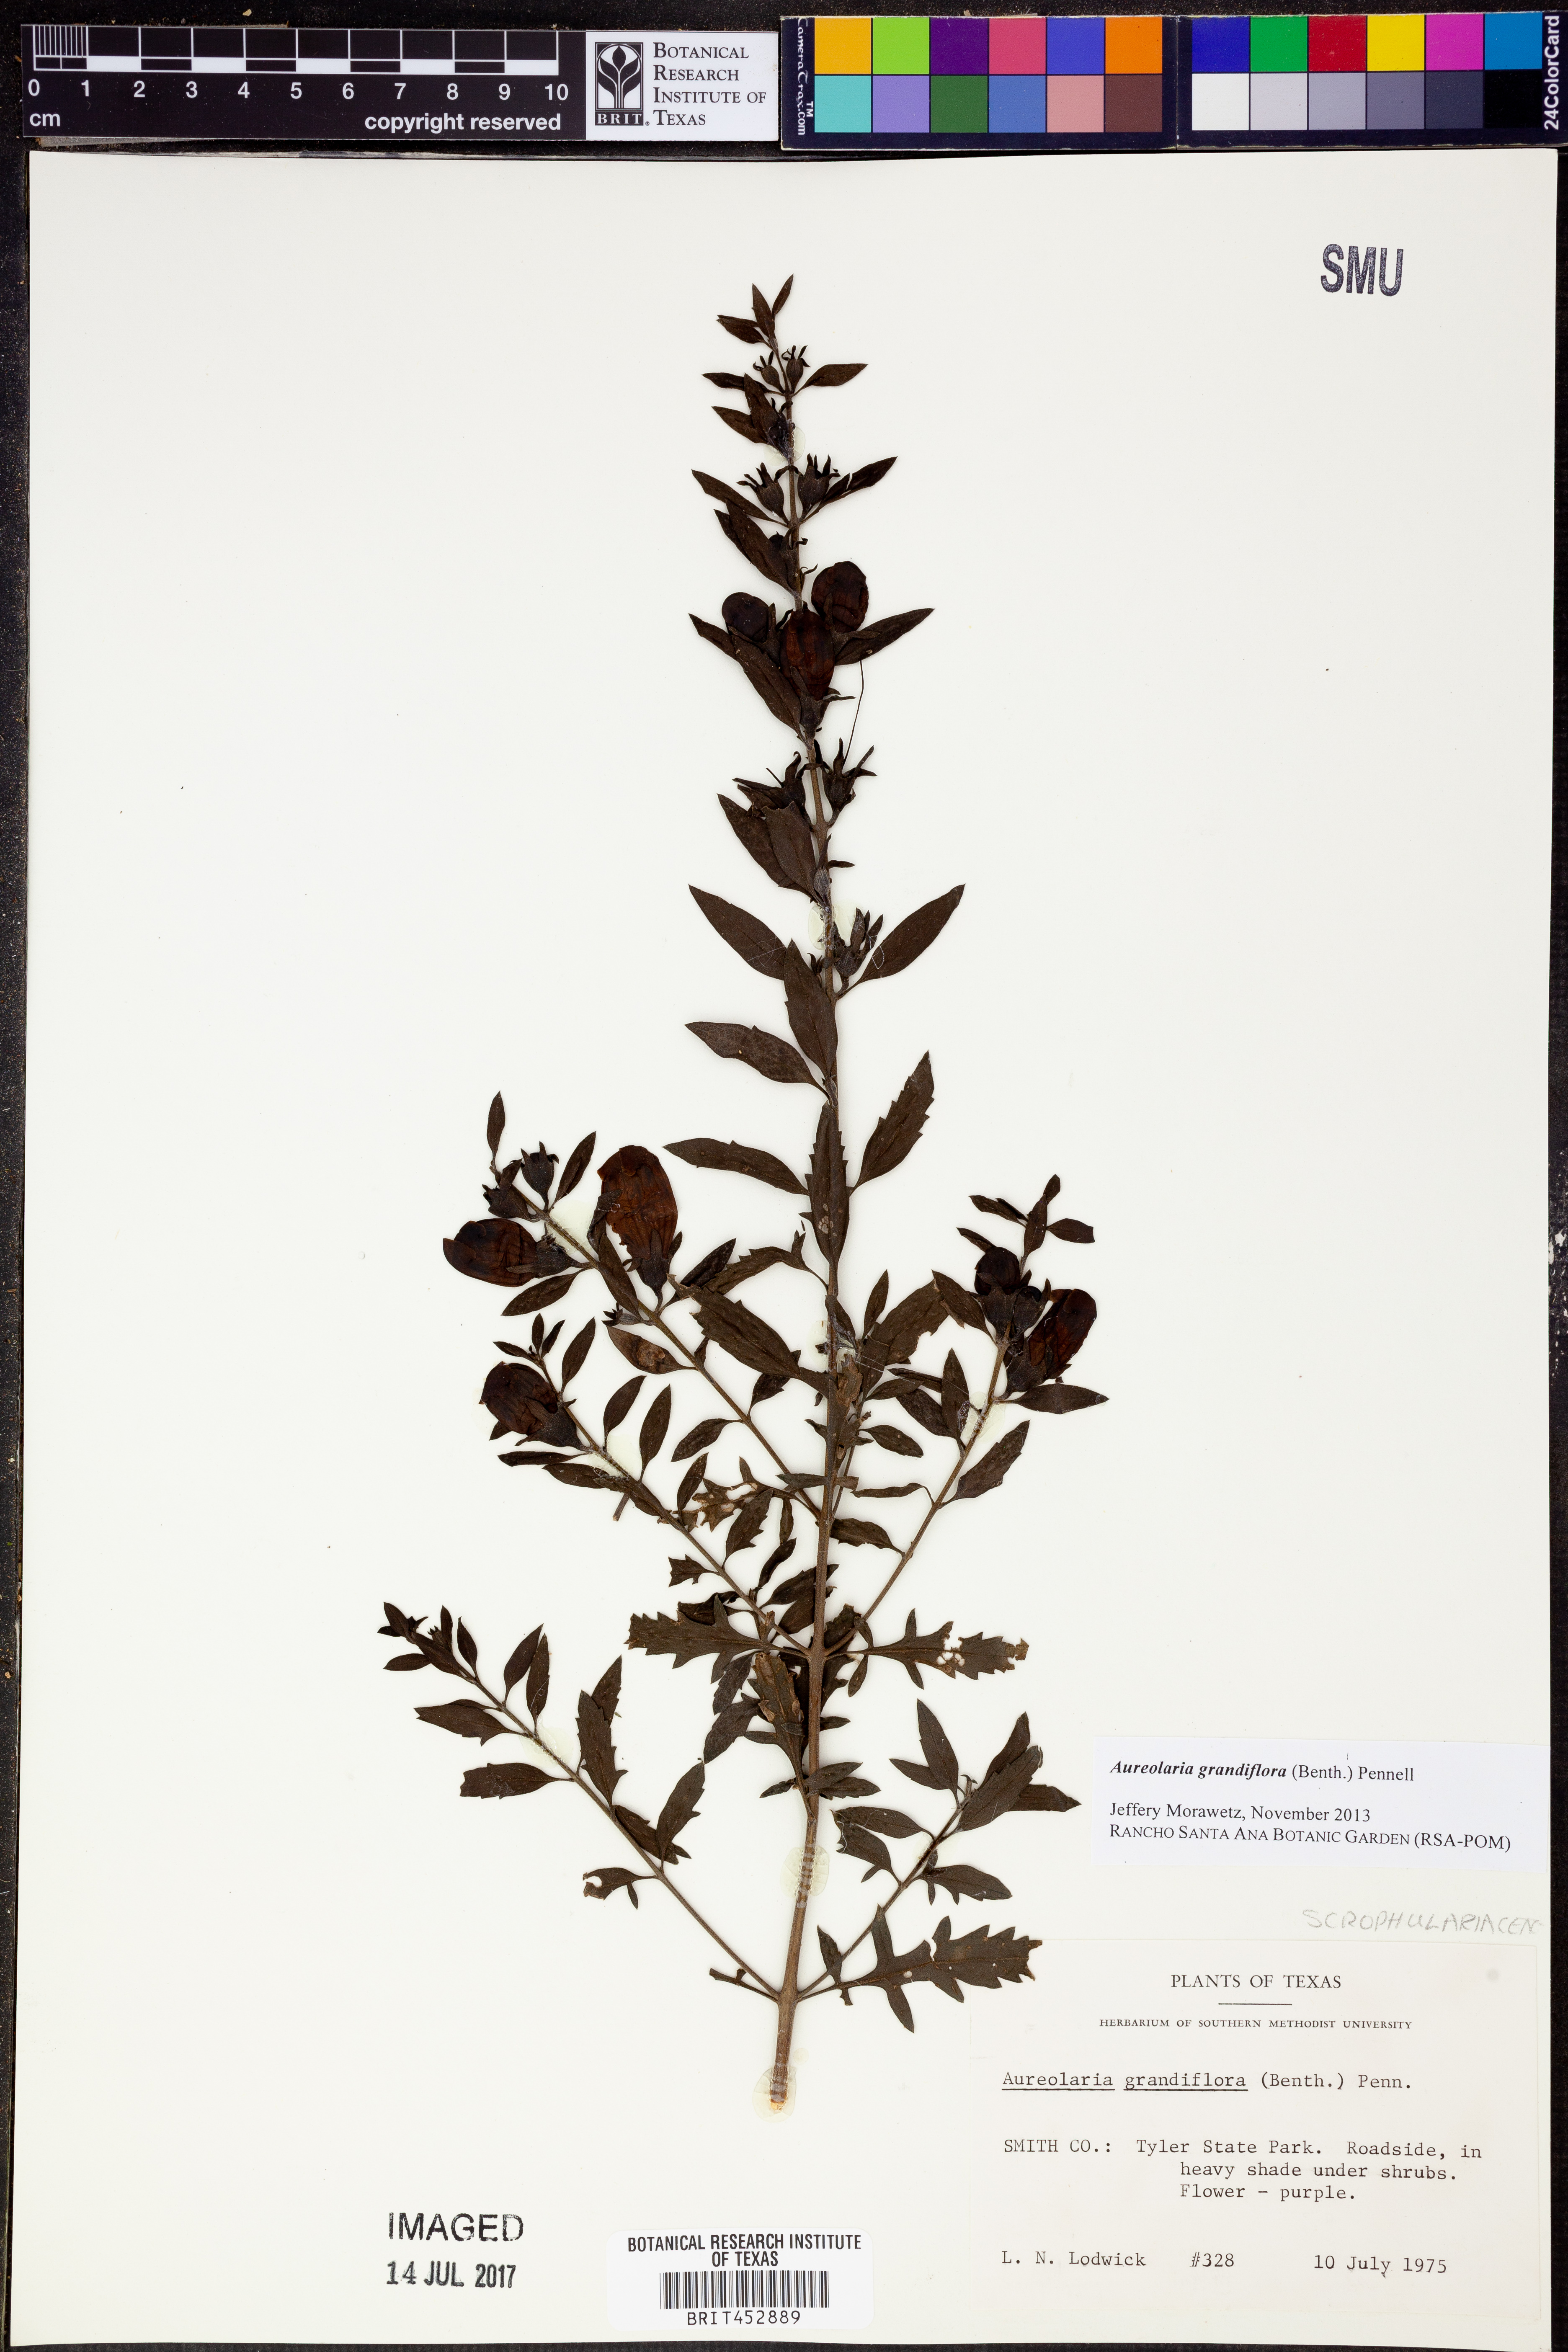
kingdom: Plantae
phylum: Tracheophyta
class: Magnoliopsida
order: Lamiales
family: Orobanchaceae
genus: Aureolaria
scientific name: Aureolaria grandiflora
